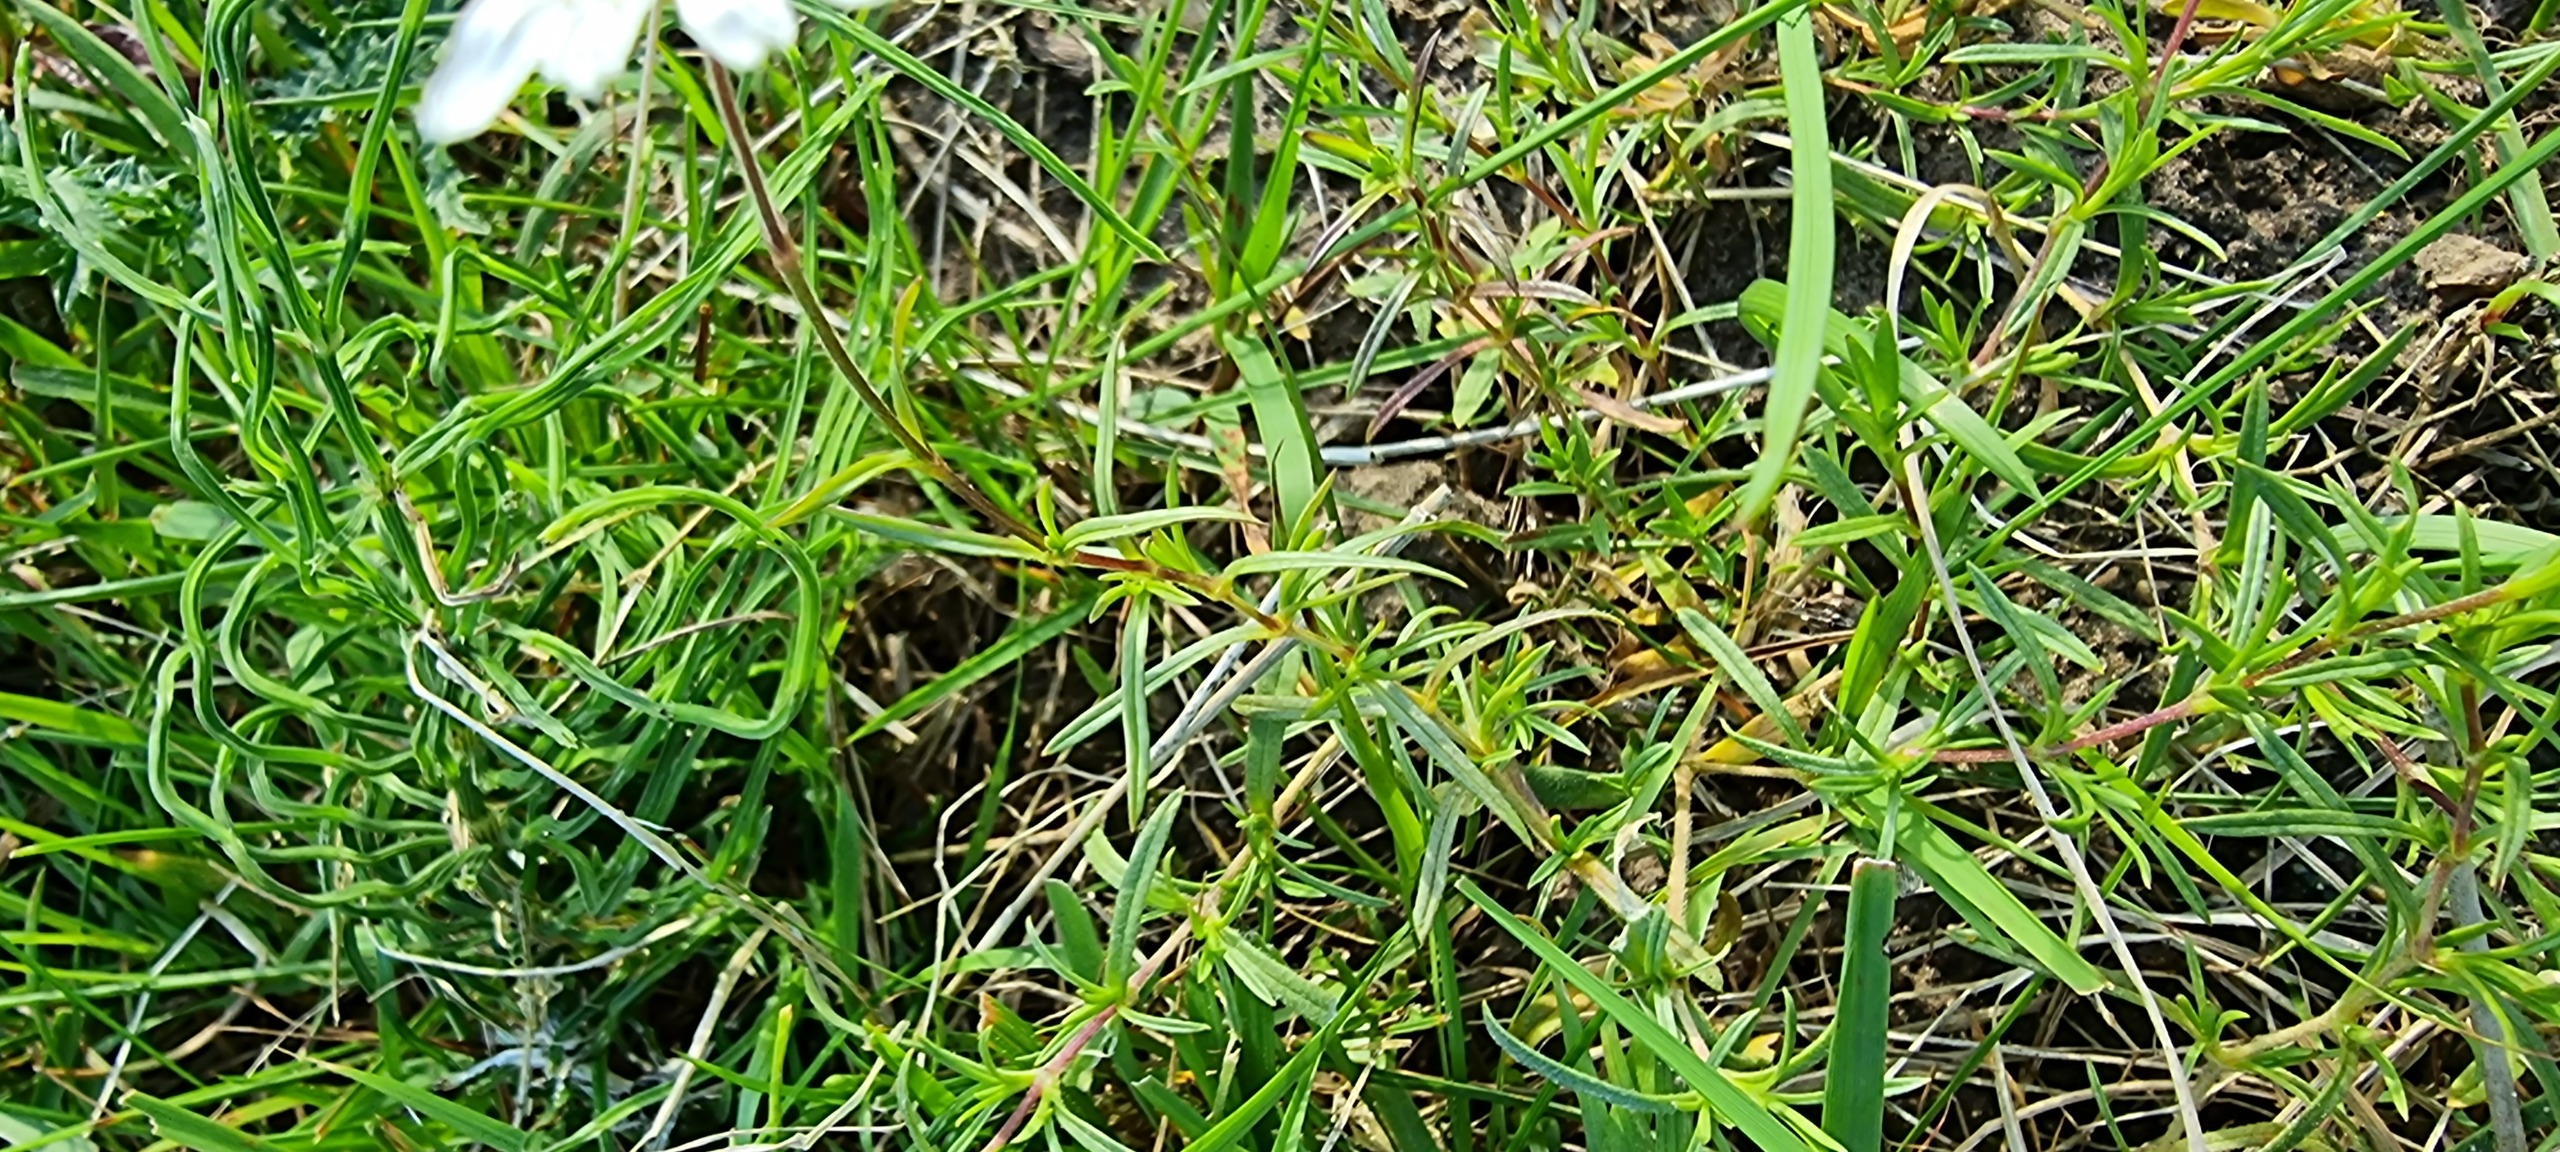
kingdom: Plantae
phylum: Tracheophyta
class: Magnoliopsida
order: Caryophyllales
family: Caryophyllaceae
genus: Cerastium
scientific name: Cerastium arvense
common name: Storblomstret hønsetarm
